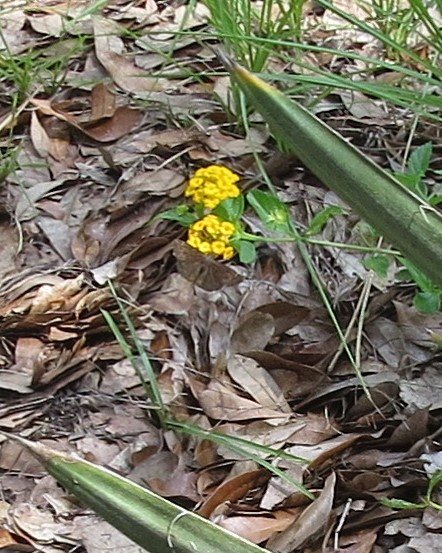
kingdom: Animalia
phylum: Arthropoda
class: Insecta
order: Lepidoptera
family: Hesperiidae
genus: Erynnis
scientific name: Erynnis zarucco
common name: Zarucco Duskywing
